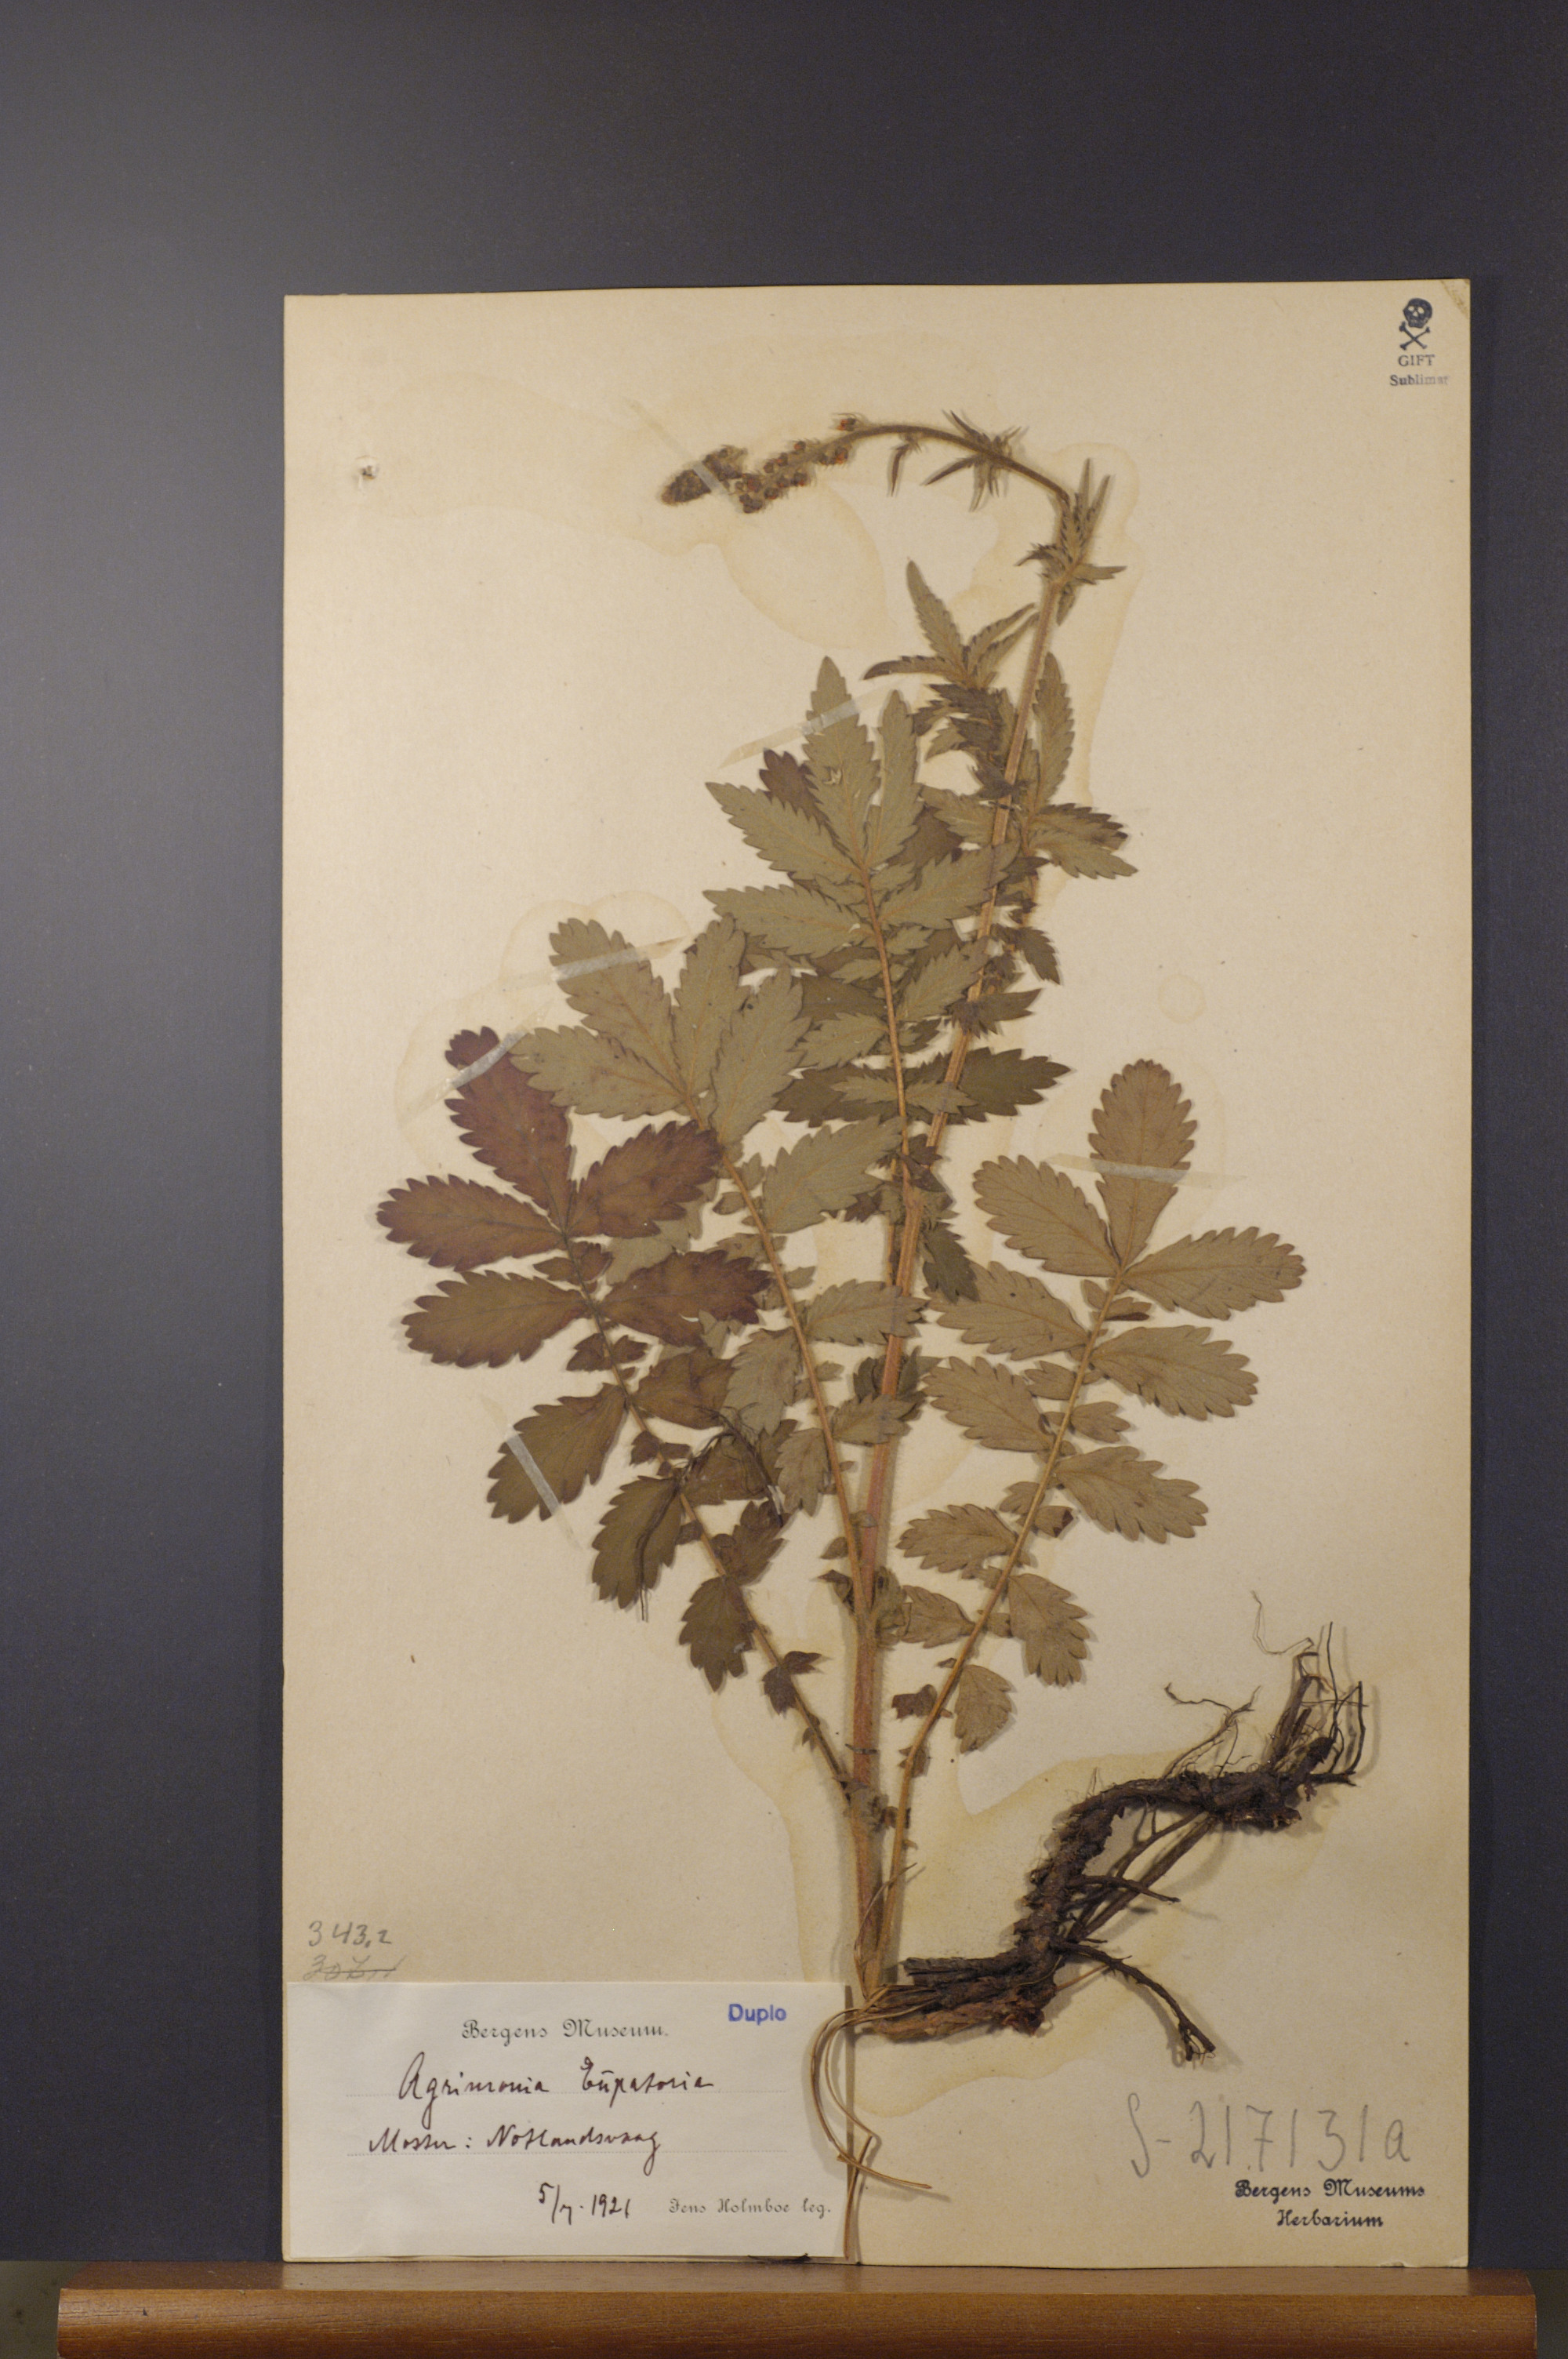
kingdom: Plantae
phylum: Tracheophyta
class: Magnoliopsida
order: Rosales
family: Rosaceae
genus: Agrimonia
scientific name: Agrimonia eupatoria
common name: Agrimony
